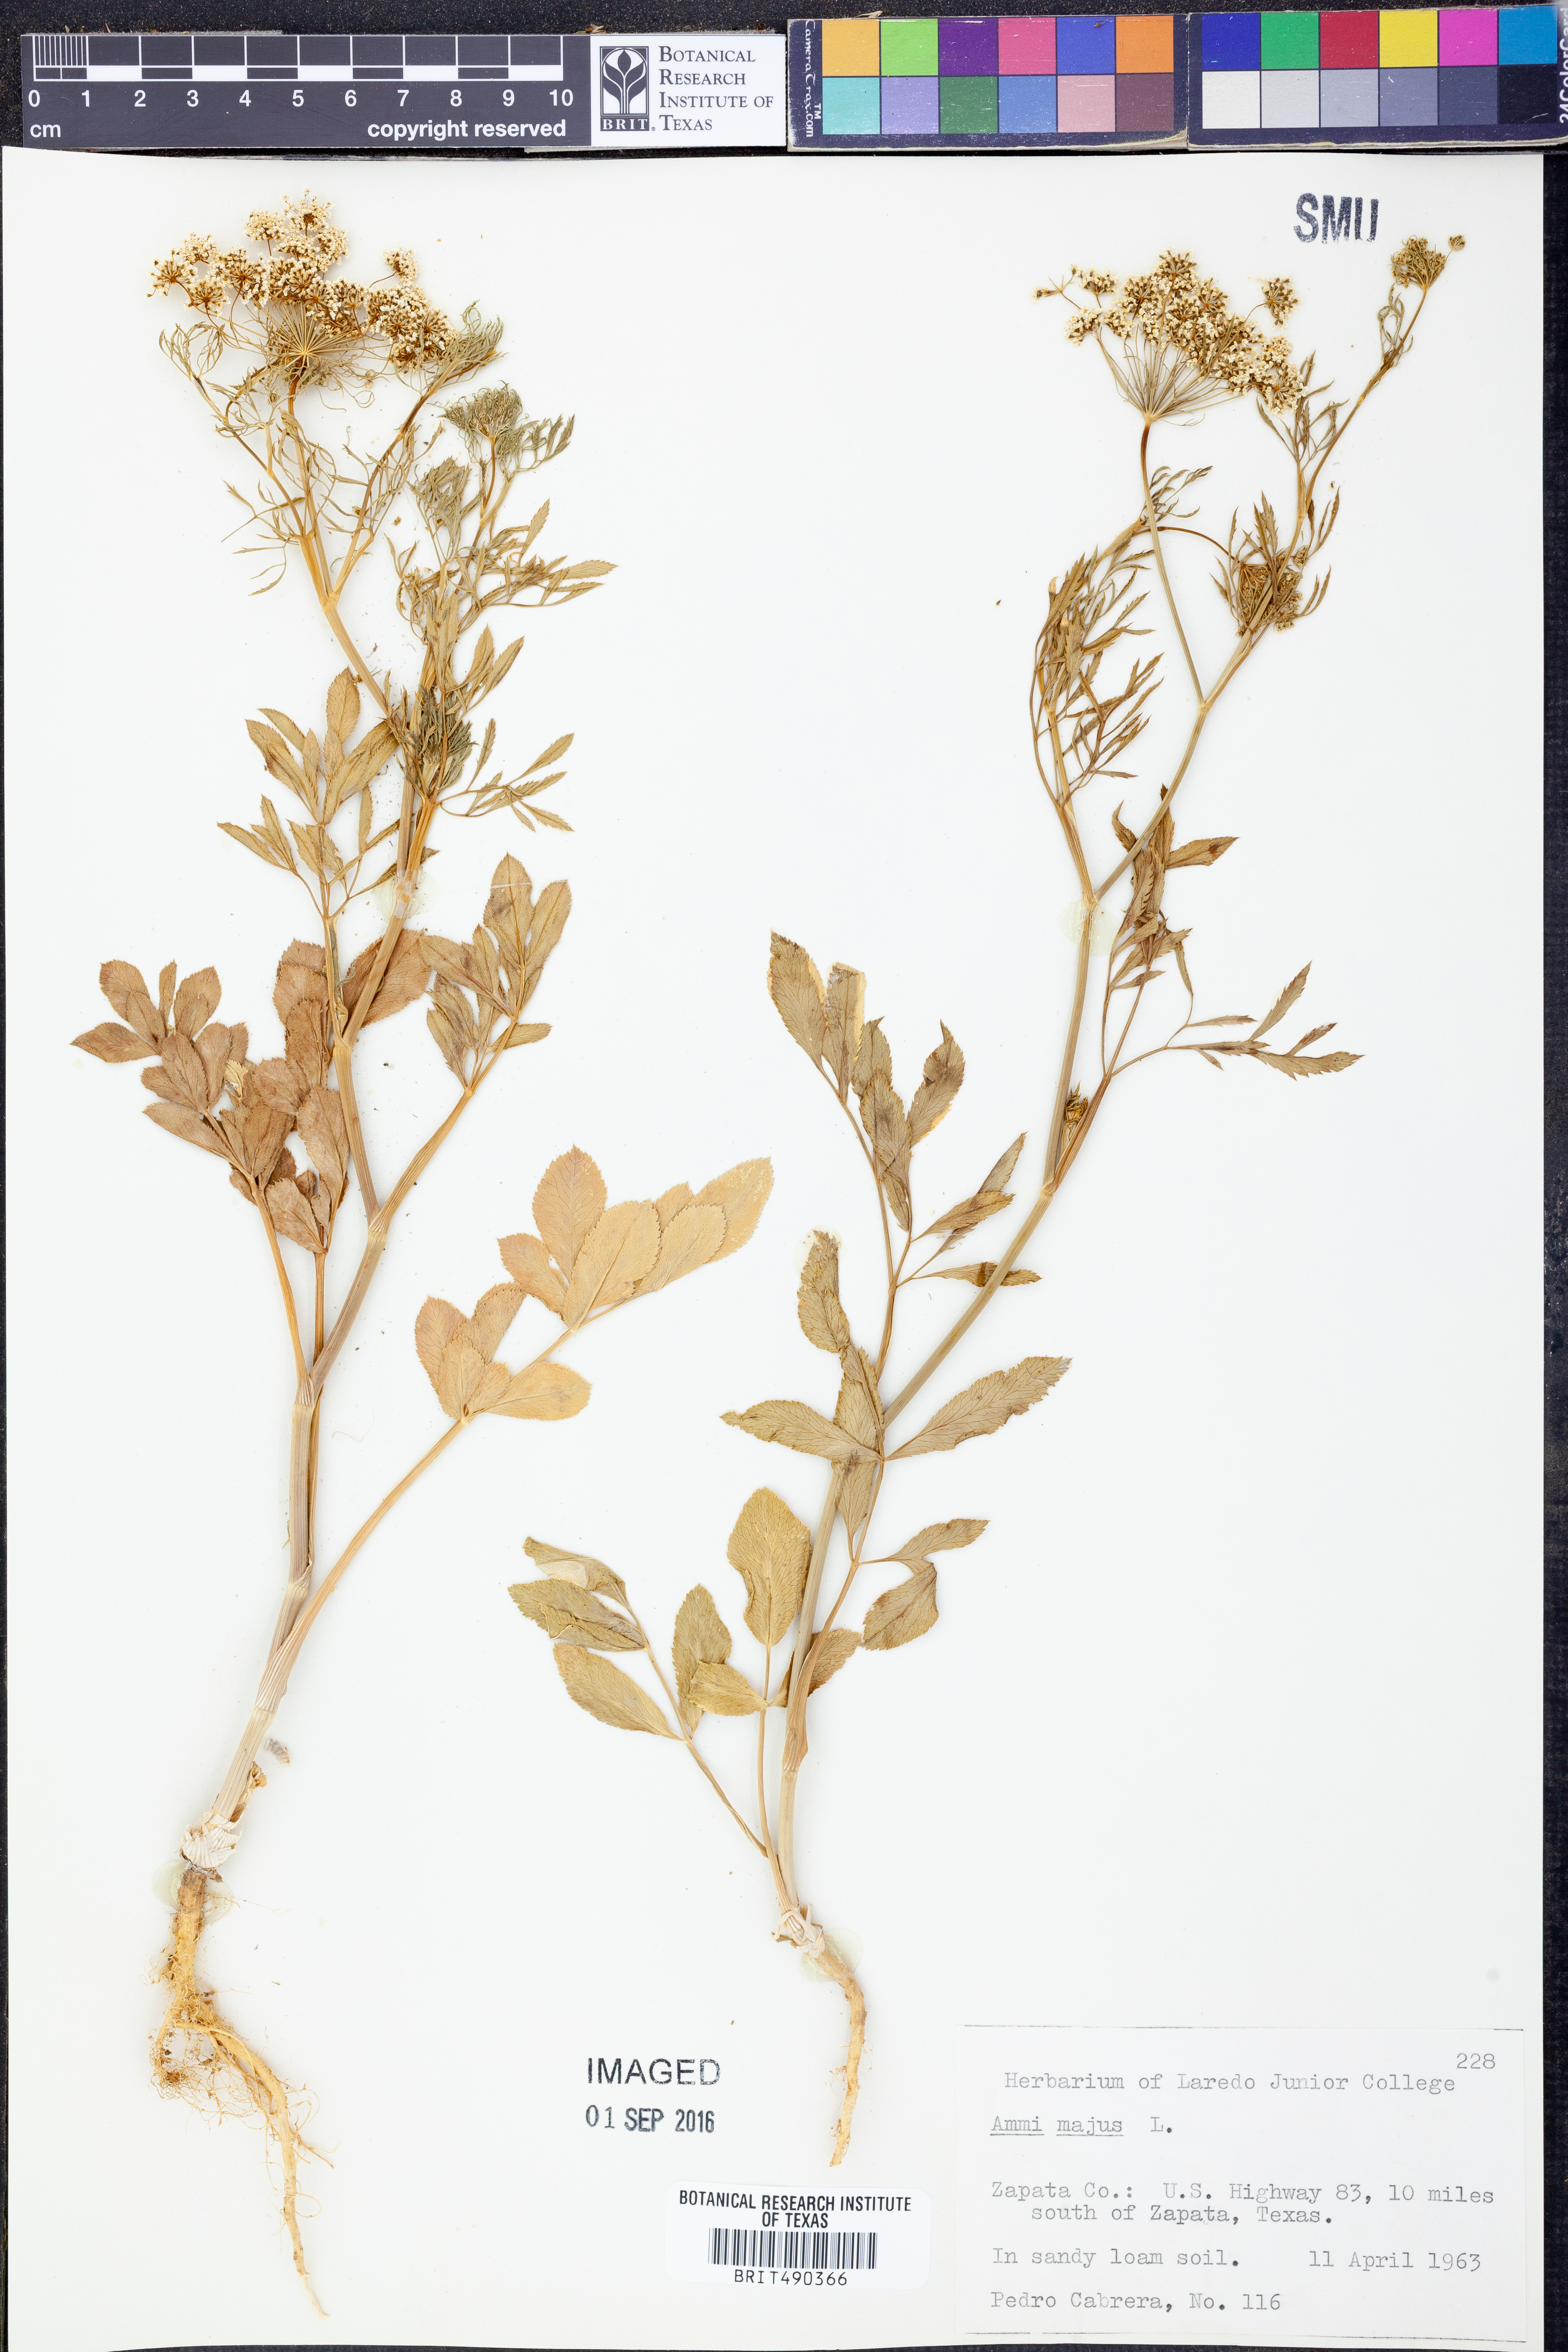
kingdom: Plantae
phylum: Tracheophyta
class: Magnoliopsida
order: Apiales
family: Apiaceae
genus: Ammi
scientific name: Ammi majus
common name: Bullwort
